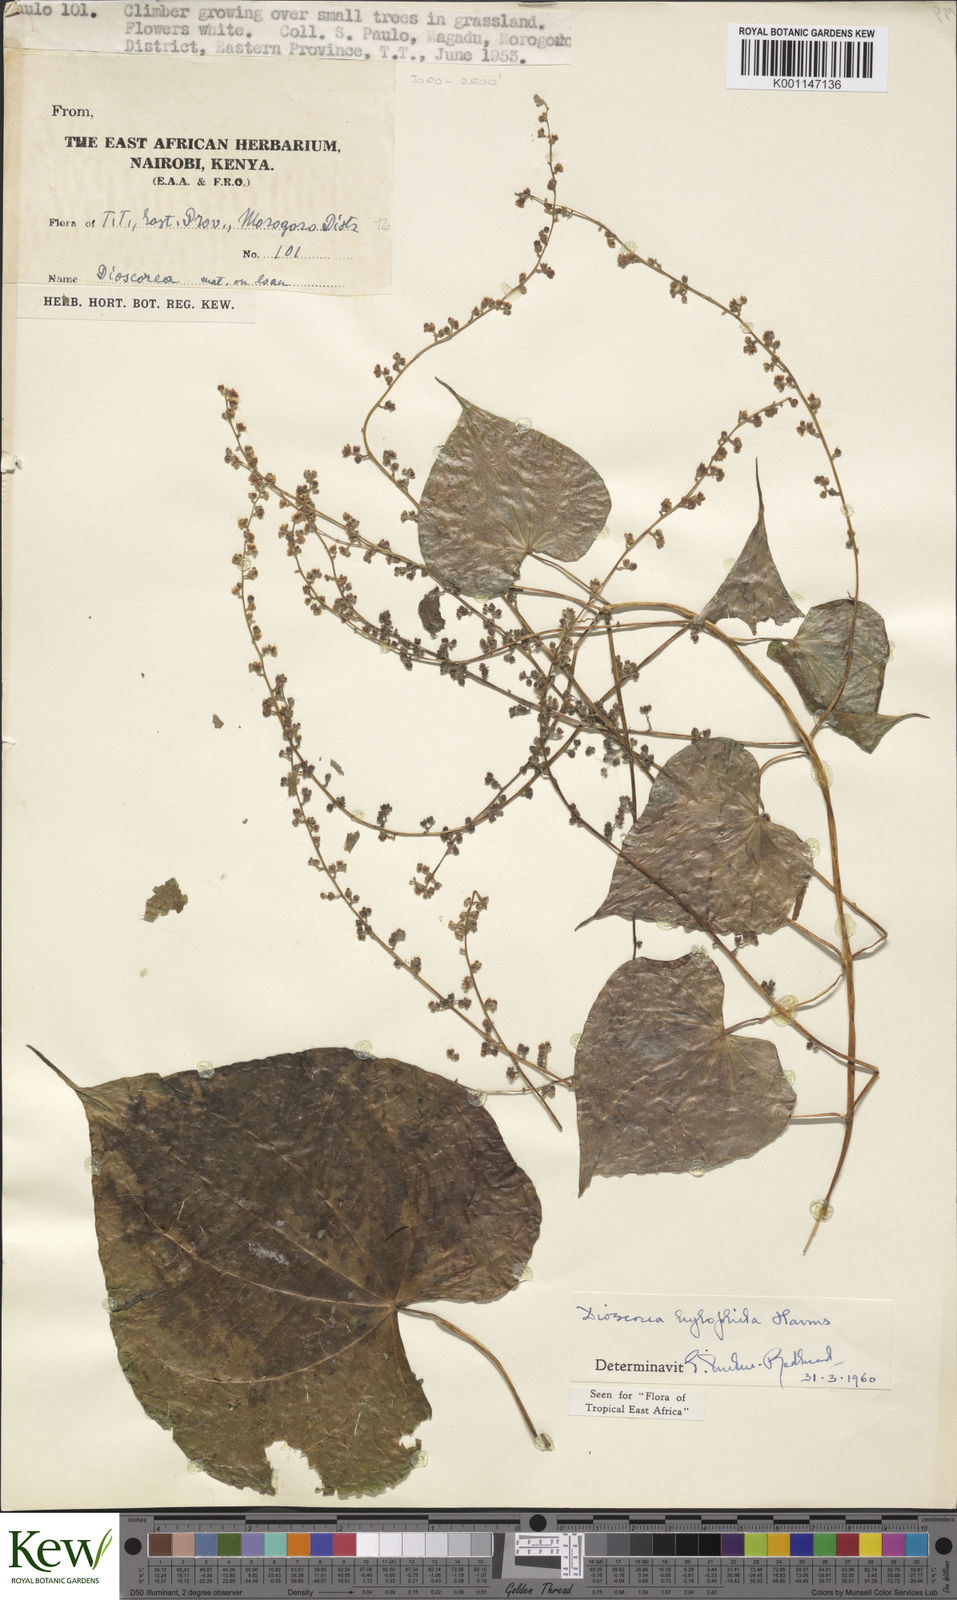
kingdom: Plantae
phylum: Tracheophyta
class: Liliopsida
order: Dioscoreales
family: Dioscoreaceae
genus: Dioscorea
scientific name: Dioscorea
